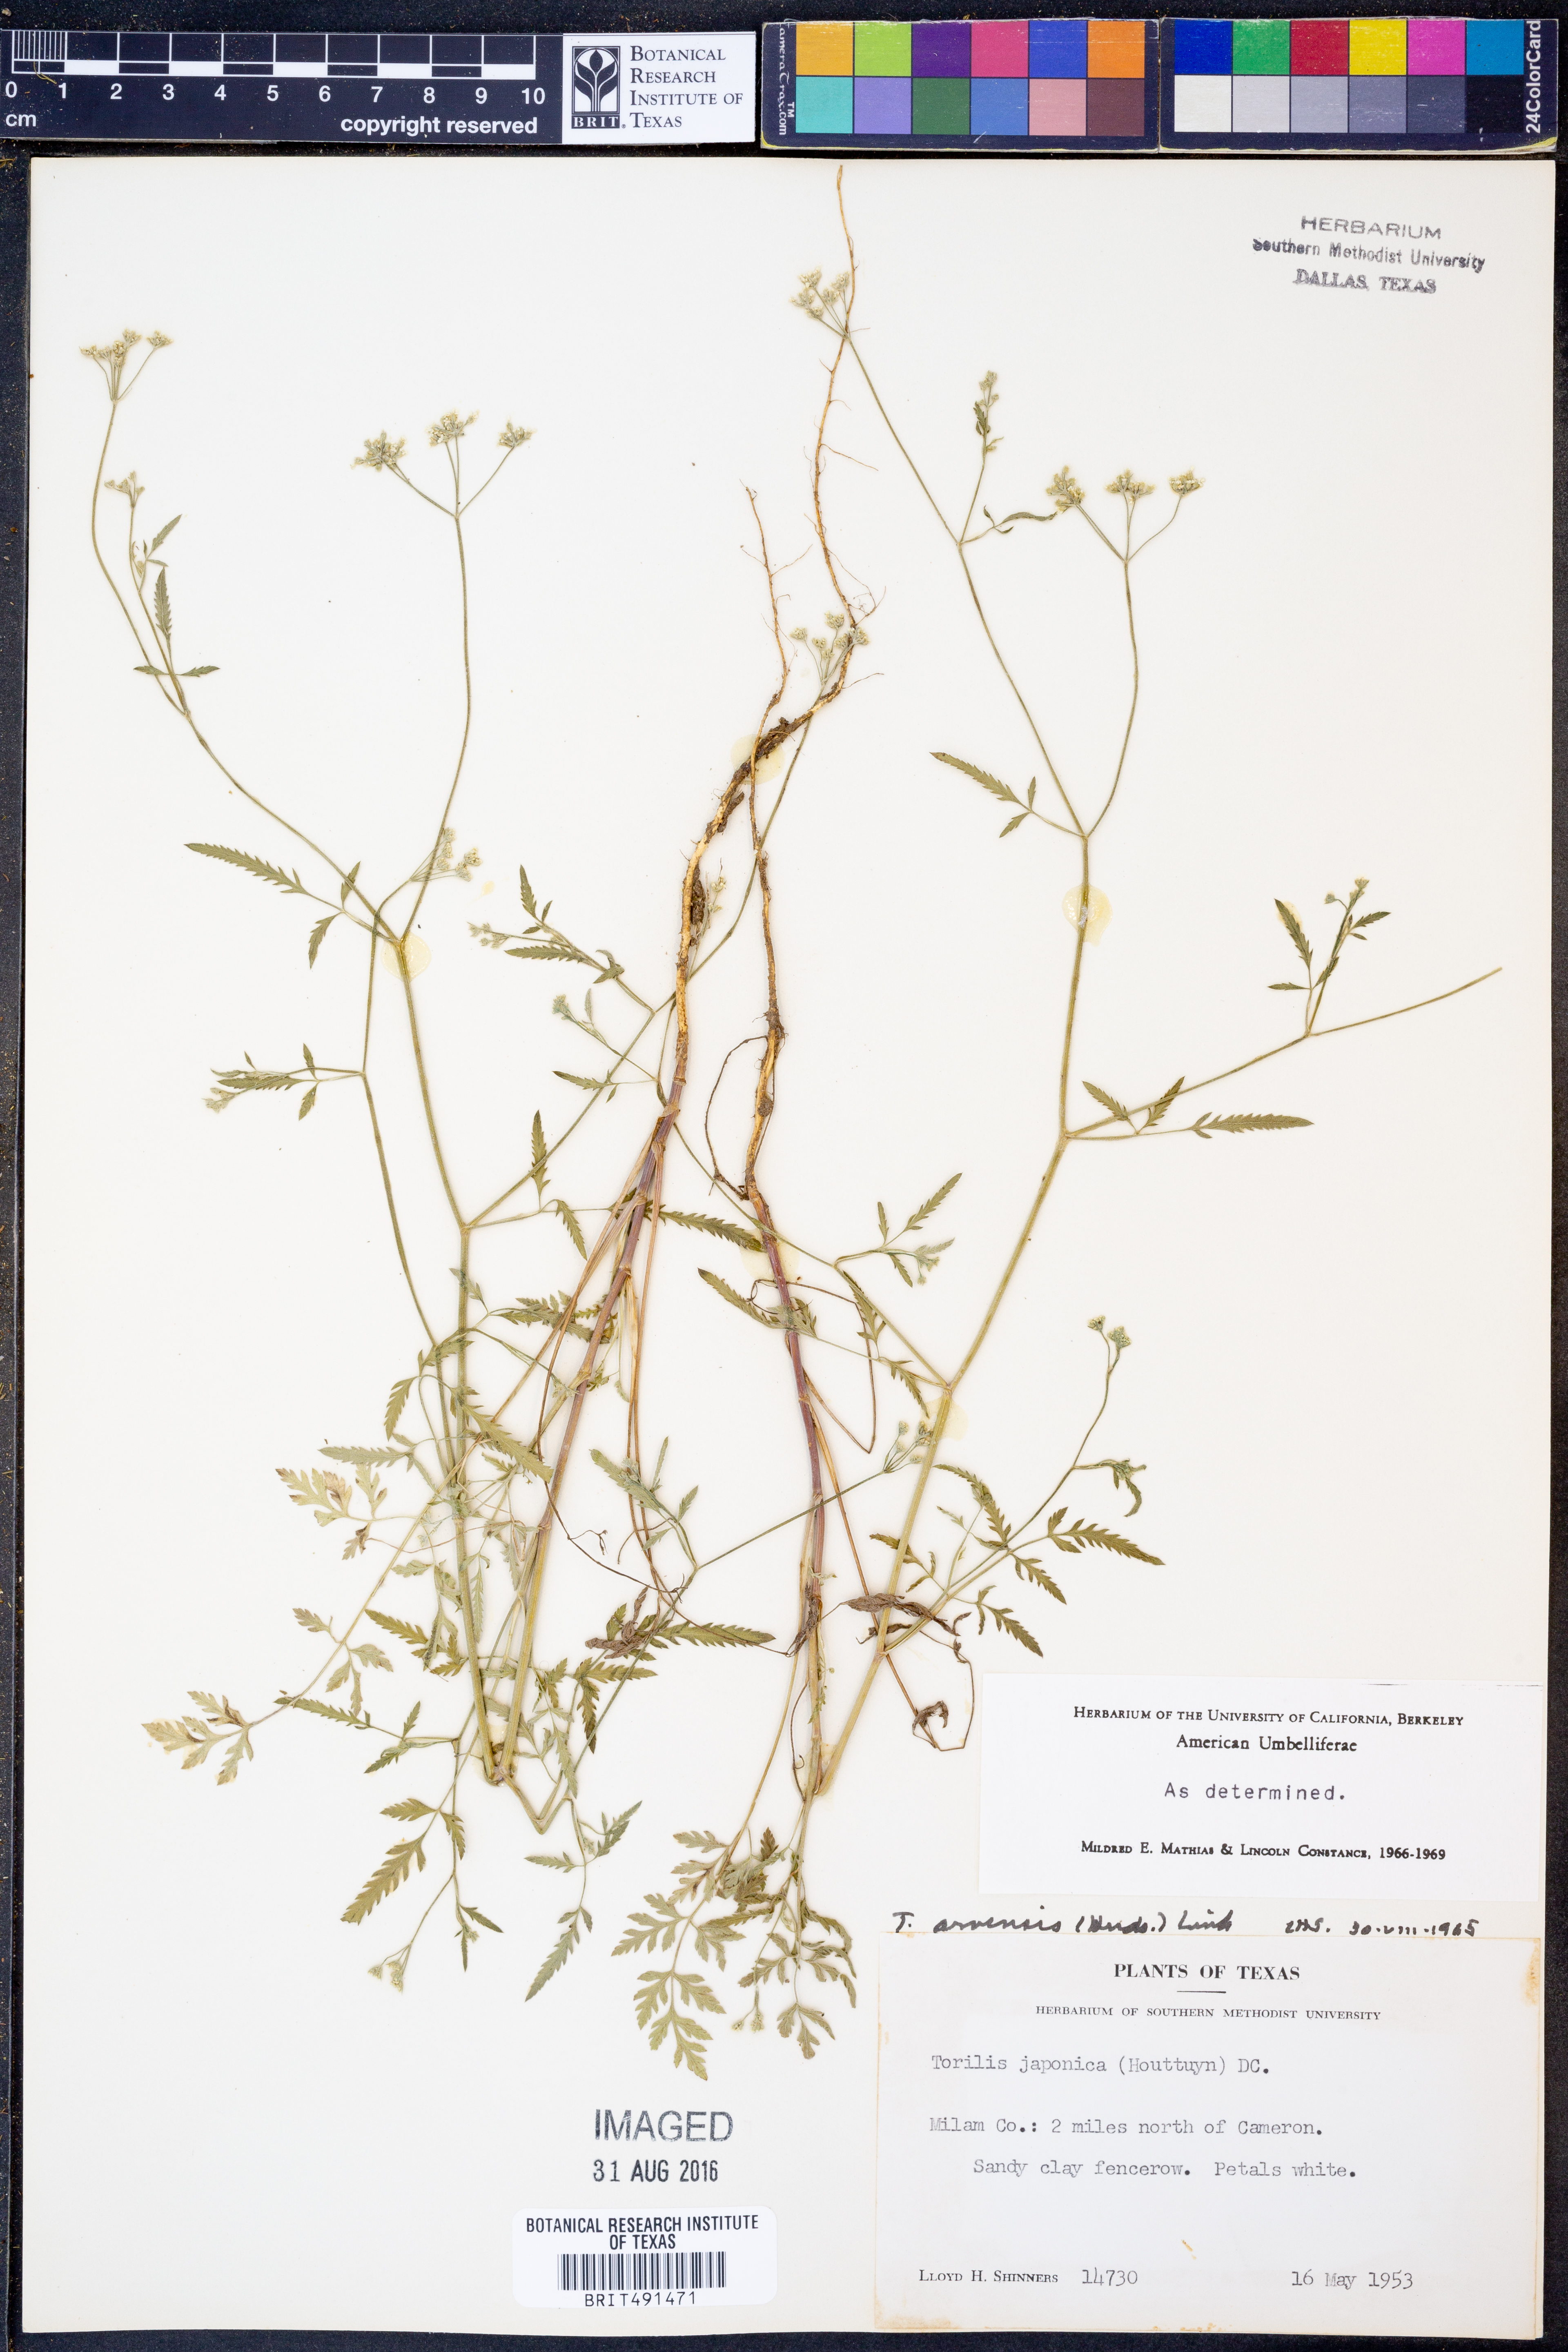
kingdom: Plantae
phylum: Tracheophyta
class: Magnoliopsida
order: Apiales
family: Apiaceae
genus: Torilis
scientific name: Torilis arvensis
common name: Spreading hedge-parsley
